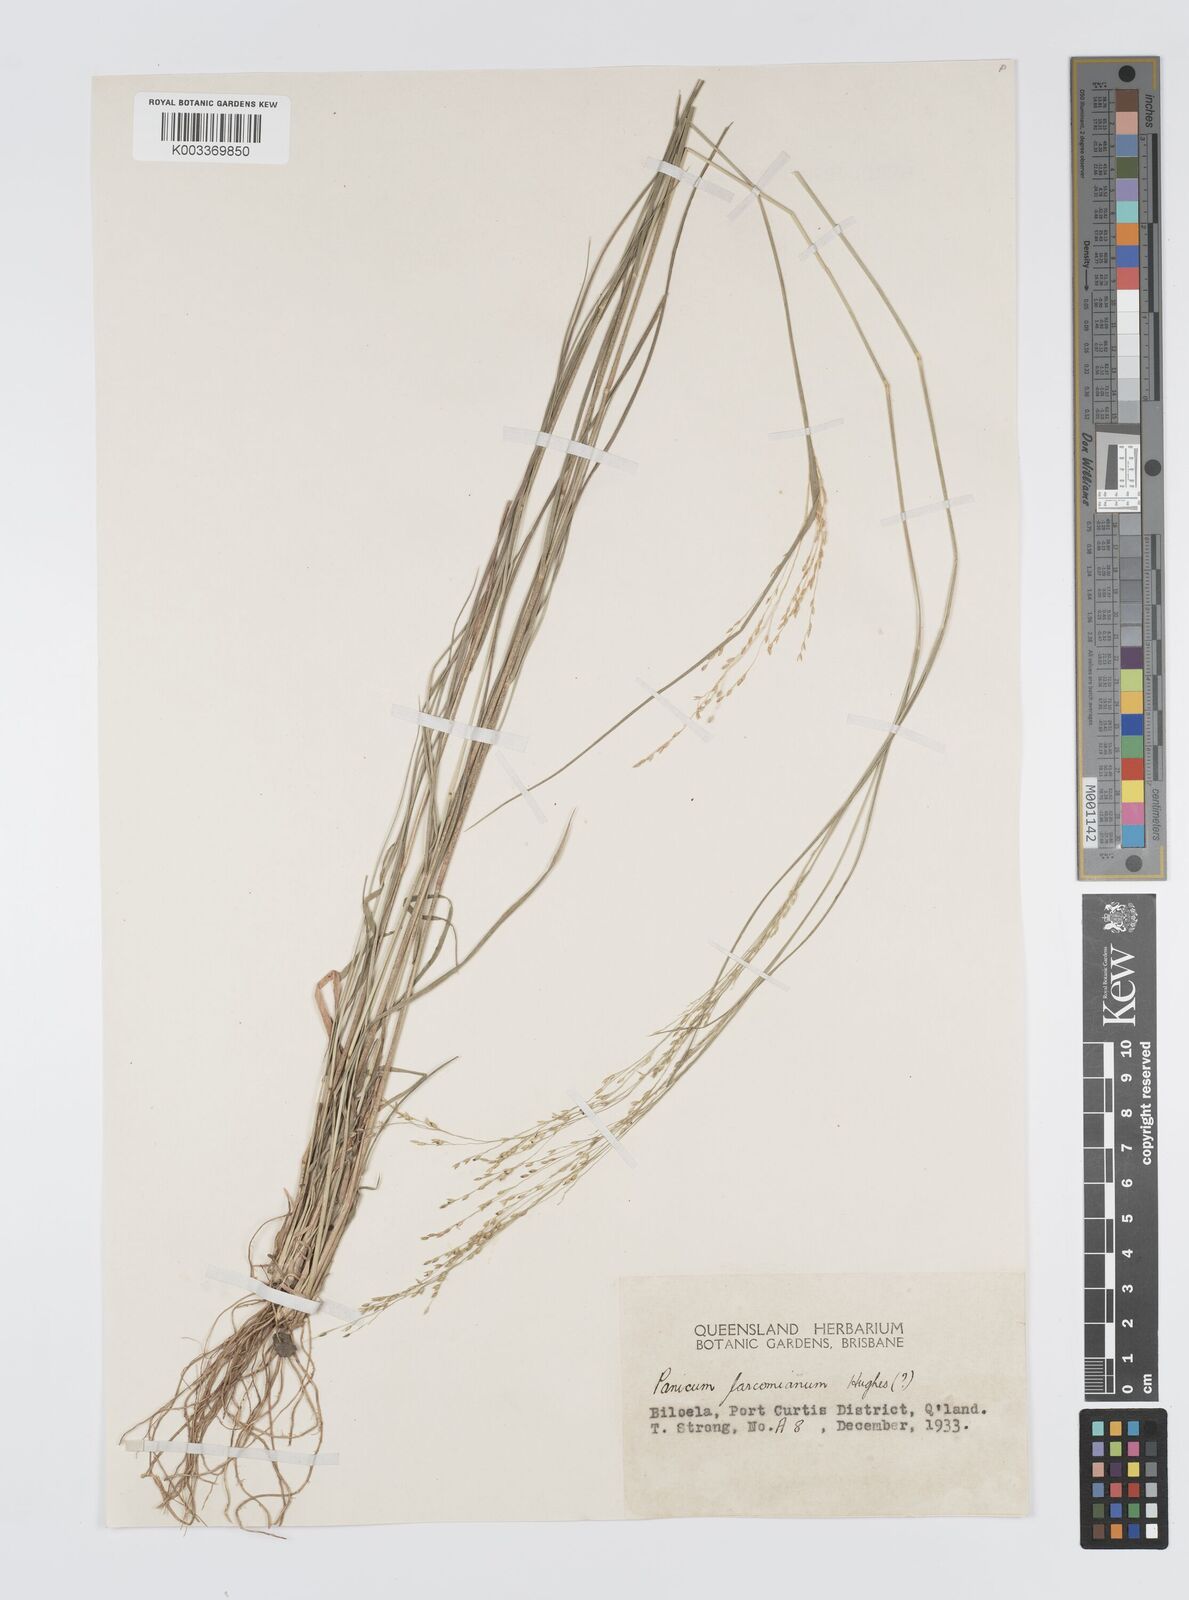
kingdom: Plantae
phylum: Tracheophyta
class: Liliopsida
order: Poales
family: Poaceae
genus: Panicum
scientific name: Panicum larcomianum
